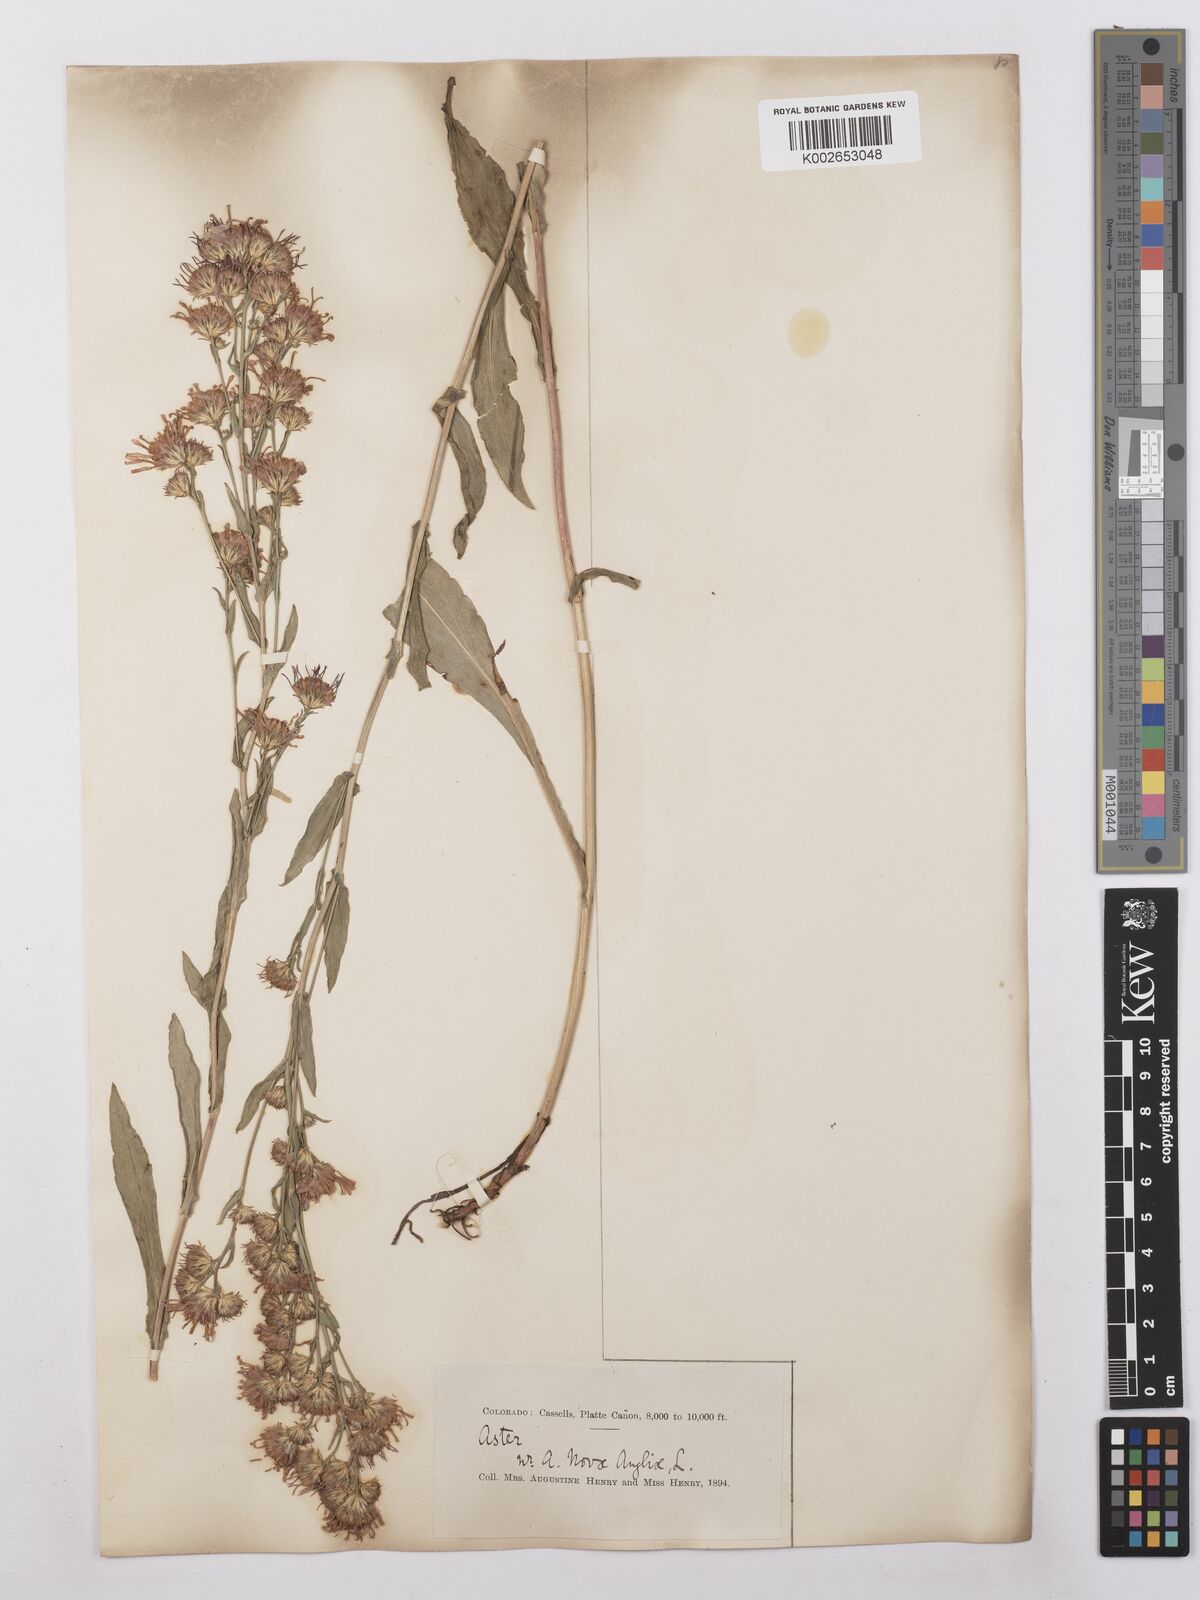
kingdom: Plantae
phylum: Tracheophyta
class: Magnoliopsida
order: Asterales
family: Asteraceae
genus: Symphyotrichum
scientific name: Symphyotrichum novae-angliae
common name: Michaelmas daisy
